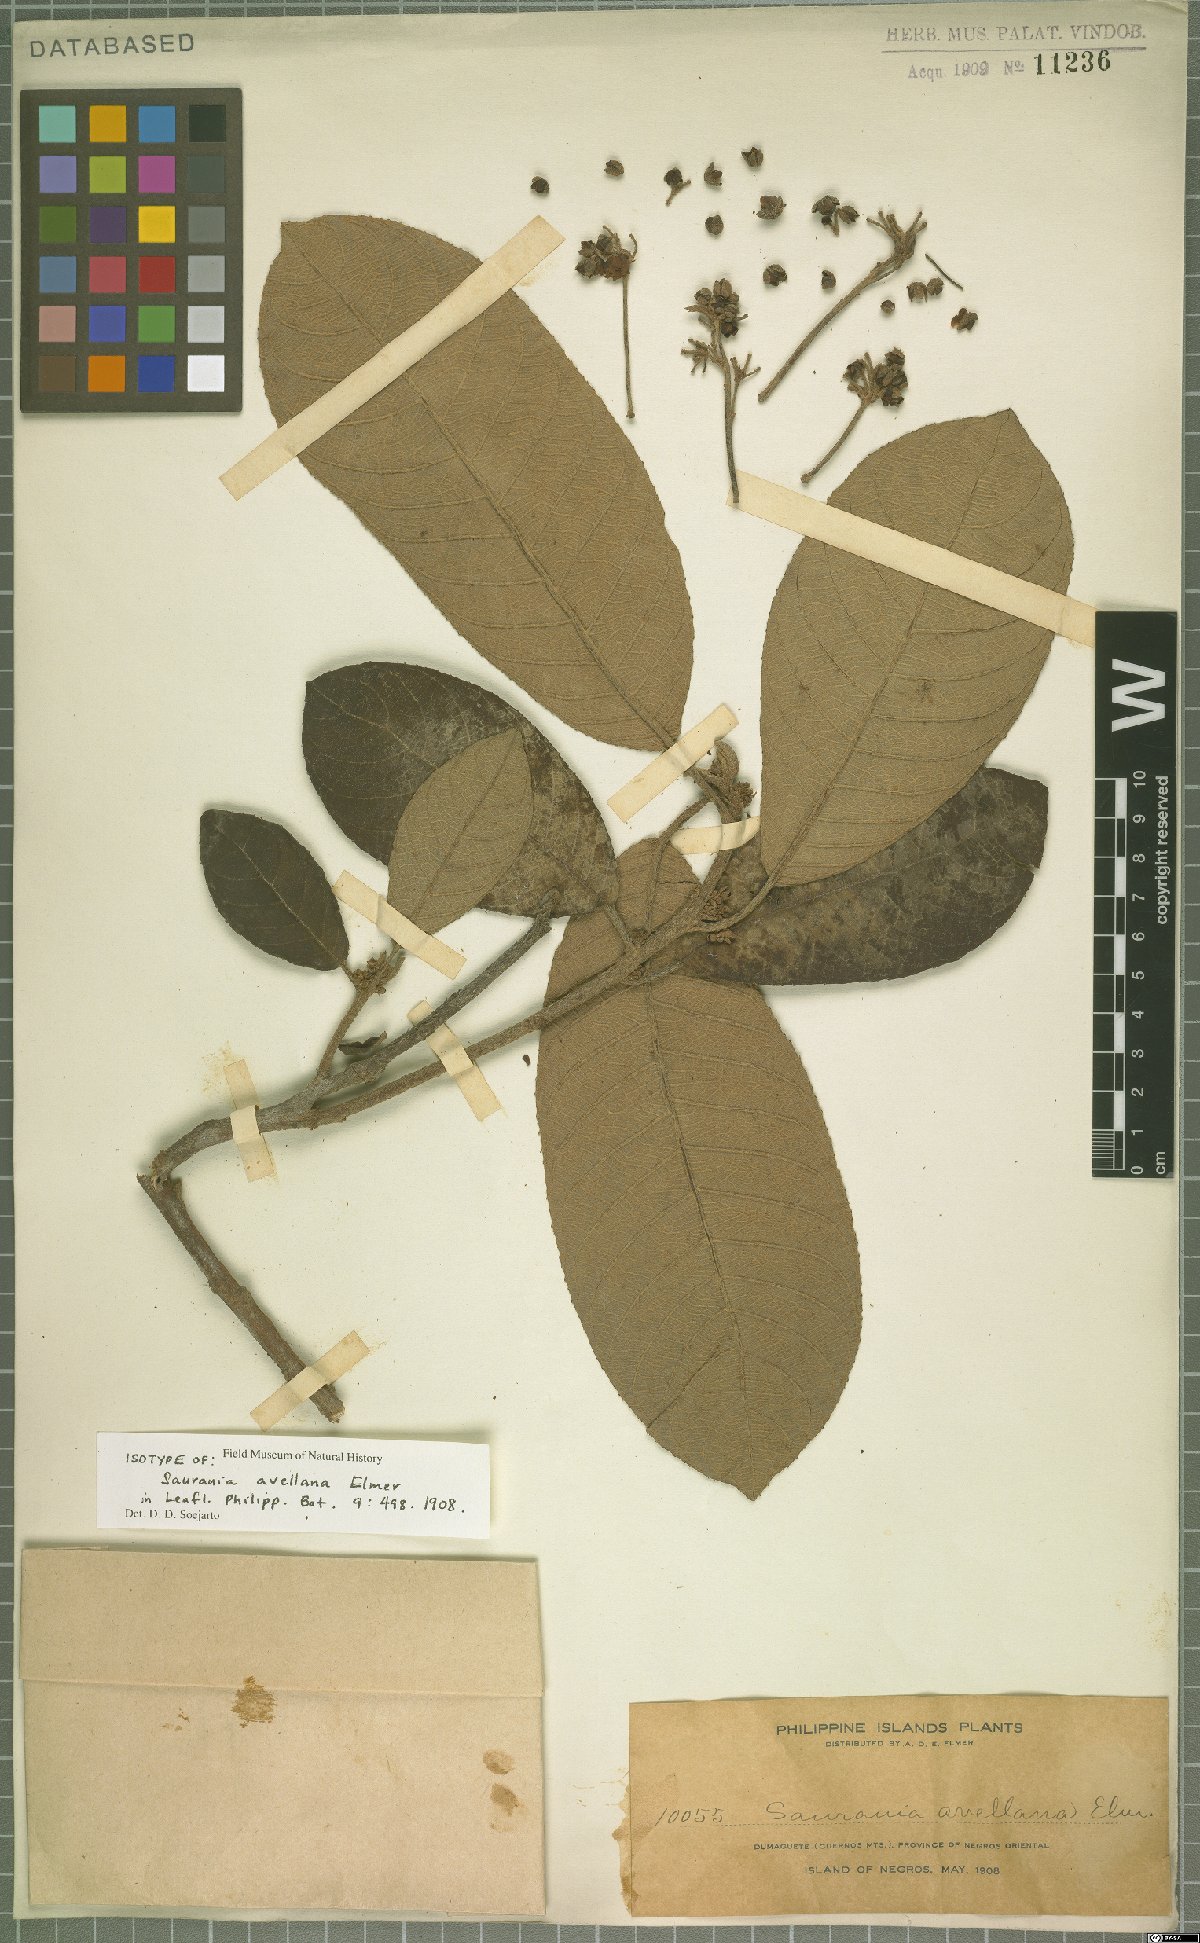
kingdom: Plantae
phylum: Tracheophyta
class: Magnoliopsida
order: Ericales
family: Actinidiaceae
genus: Saurauia
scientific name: Saurauia avellana
